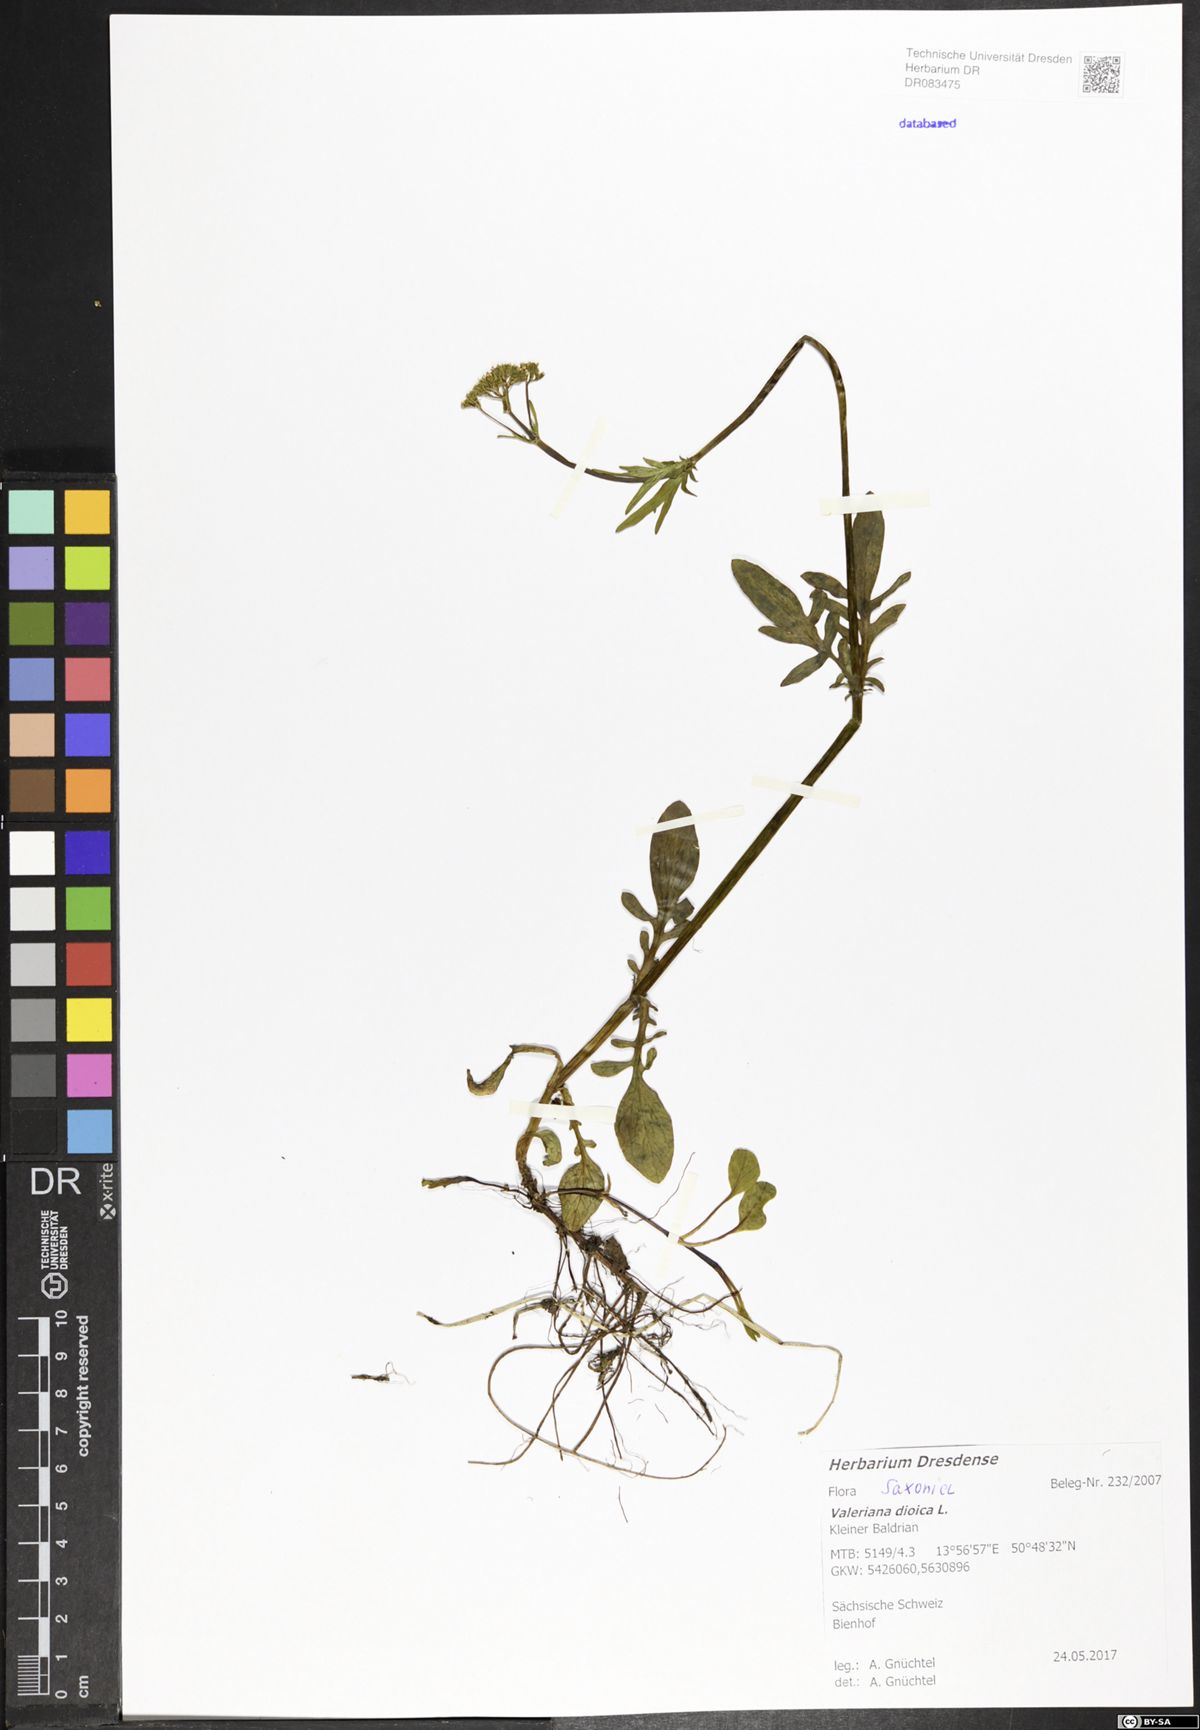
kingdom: Plantae
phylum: Tracheophyta
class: Magnoliopsida
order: Dipsacales
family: Caprifoliaceae
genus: Valeriana
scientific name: Valeriana dioica
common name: Marsh valerian
